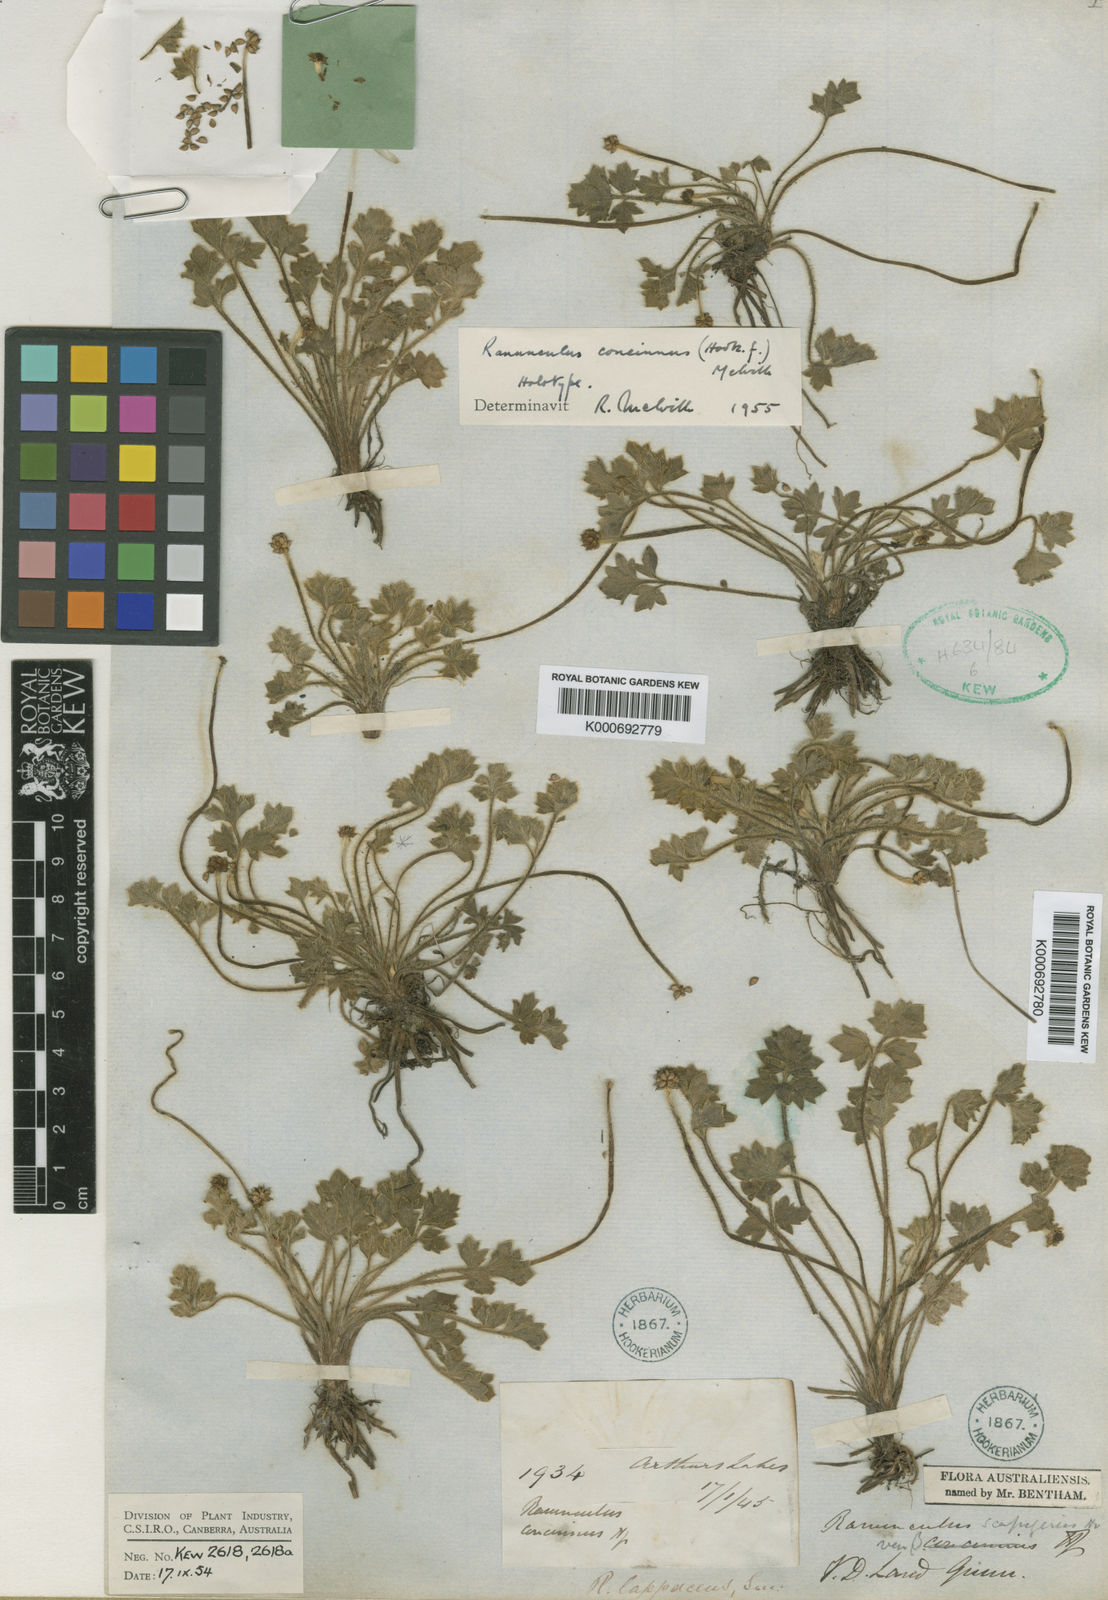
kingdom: Plantae
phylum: Tracheophyta
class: Magnoliopsida
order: Ranunculales
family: Ranunculaceae
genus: Ranunculus
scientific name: Ranunculus decurvus
